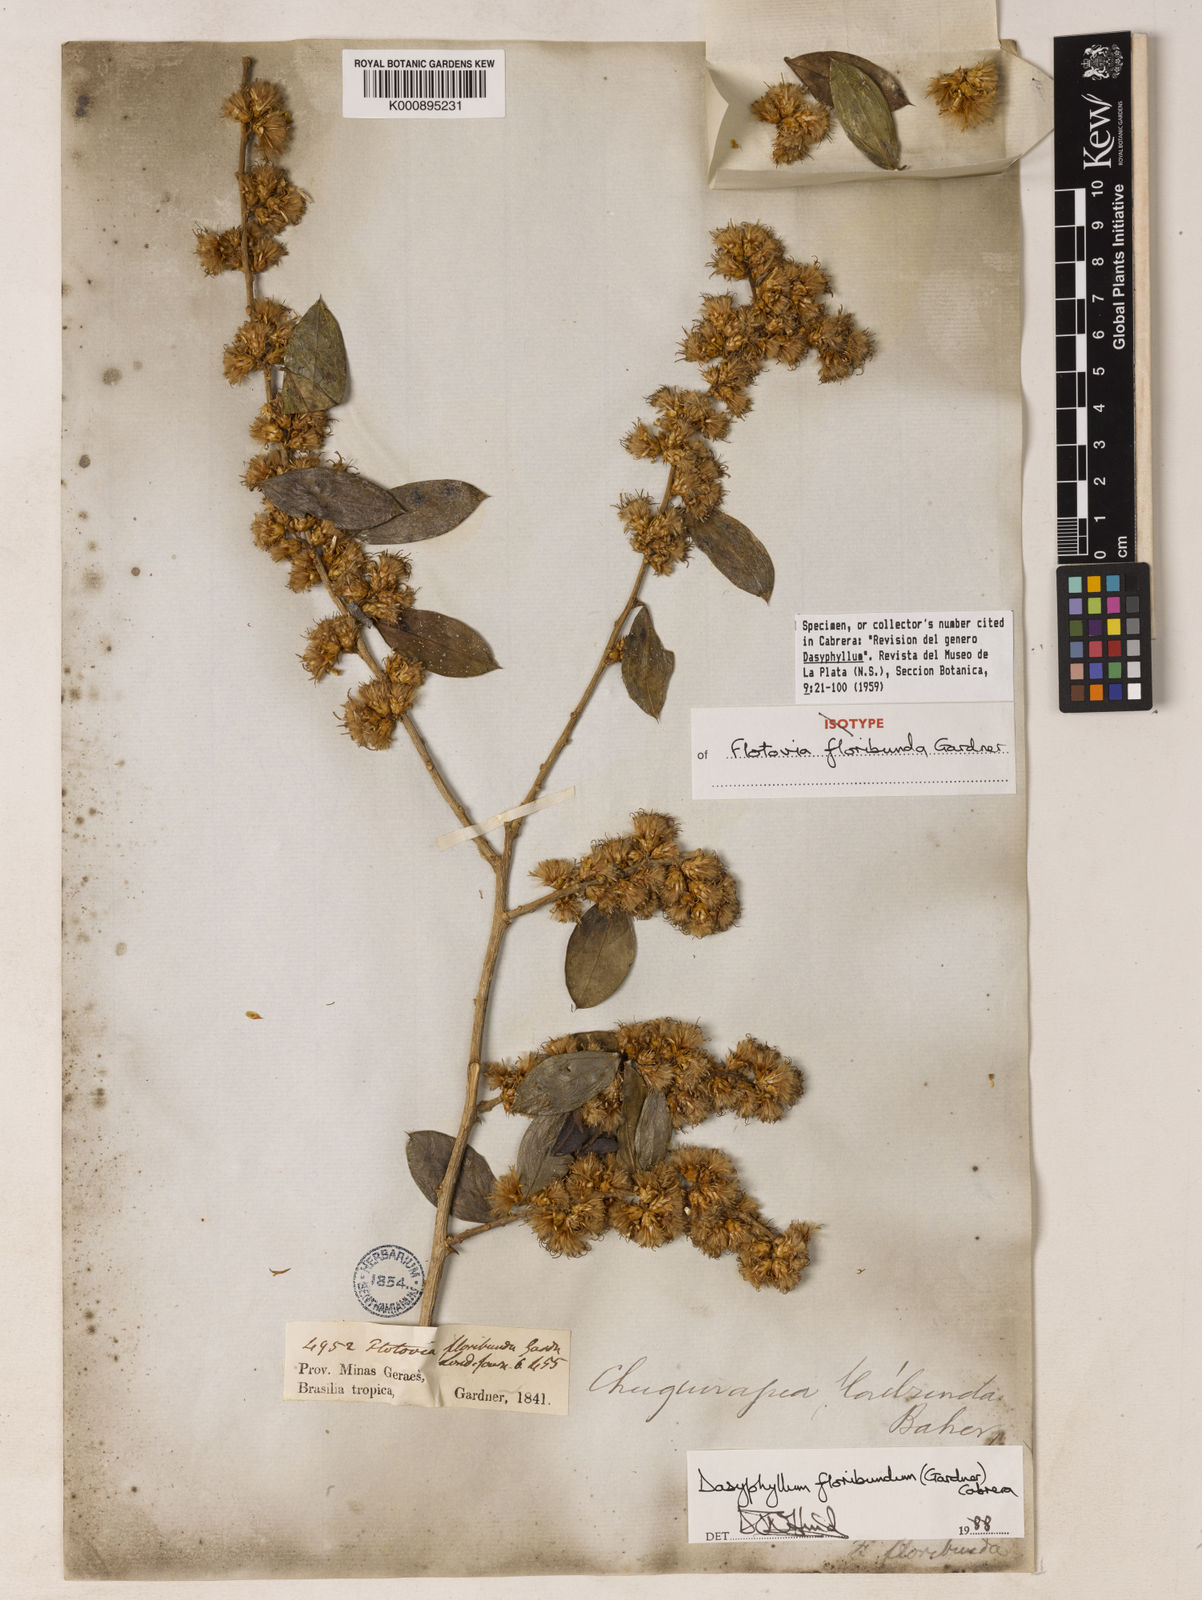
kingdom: Plantae
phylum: Tracheophyta
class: Magnoliopsida
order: Asterales
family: Asteraceae
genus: Dasyphyllum
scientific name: Dasyphyllum floribundum
